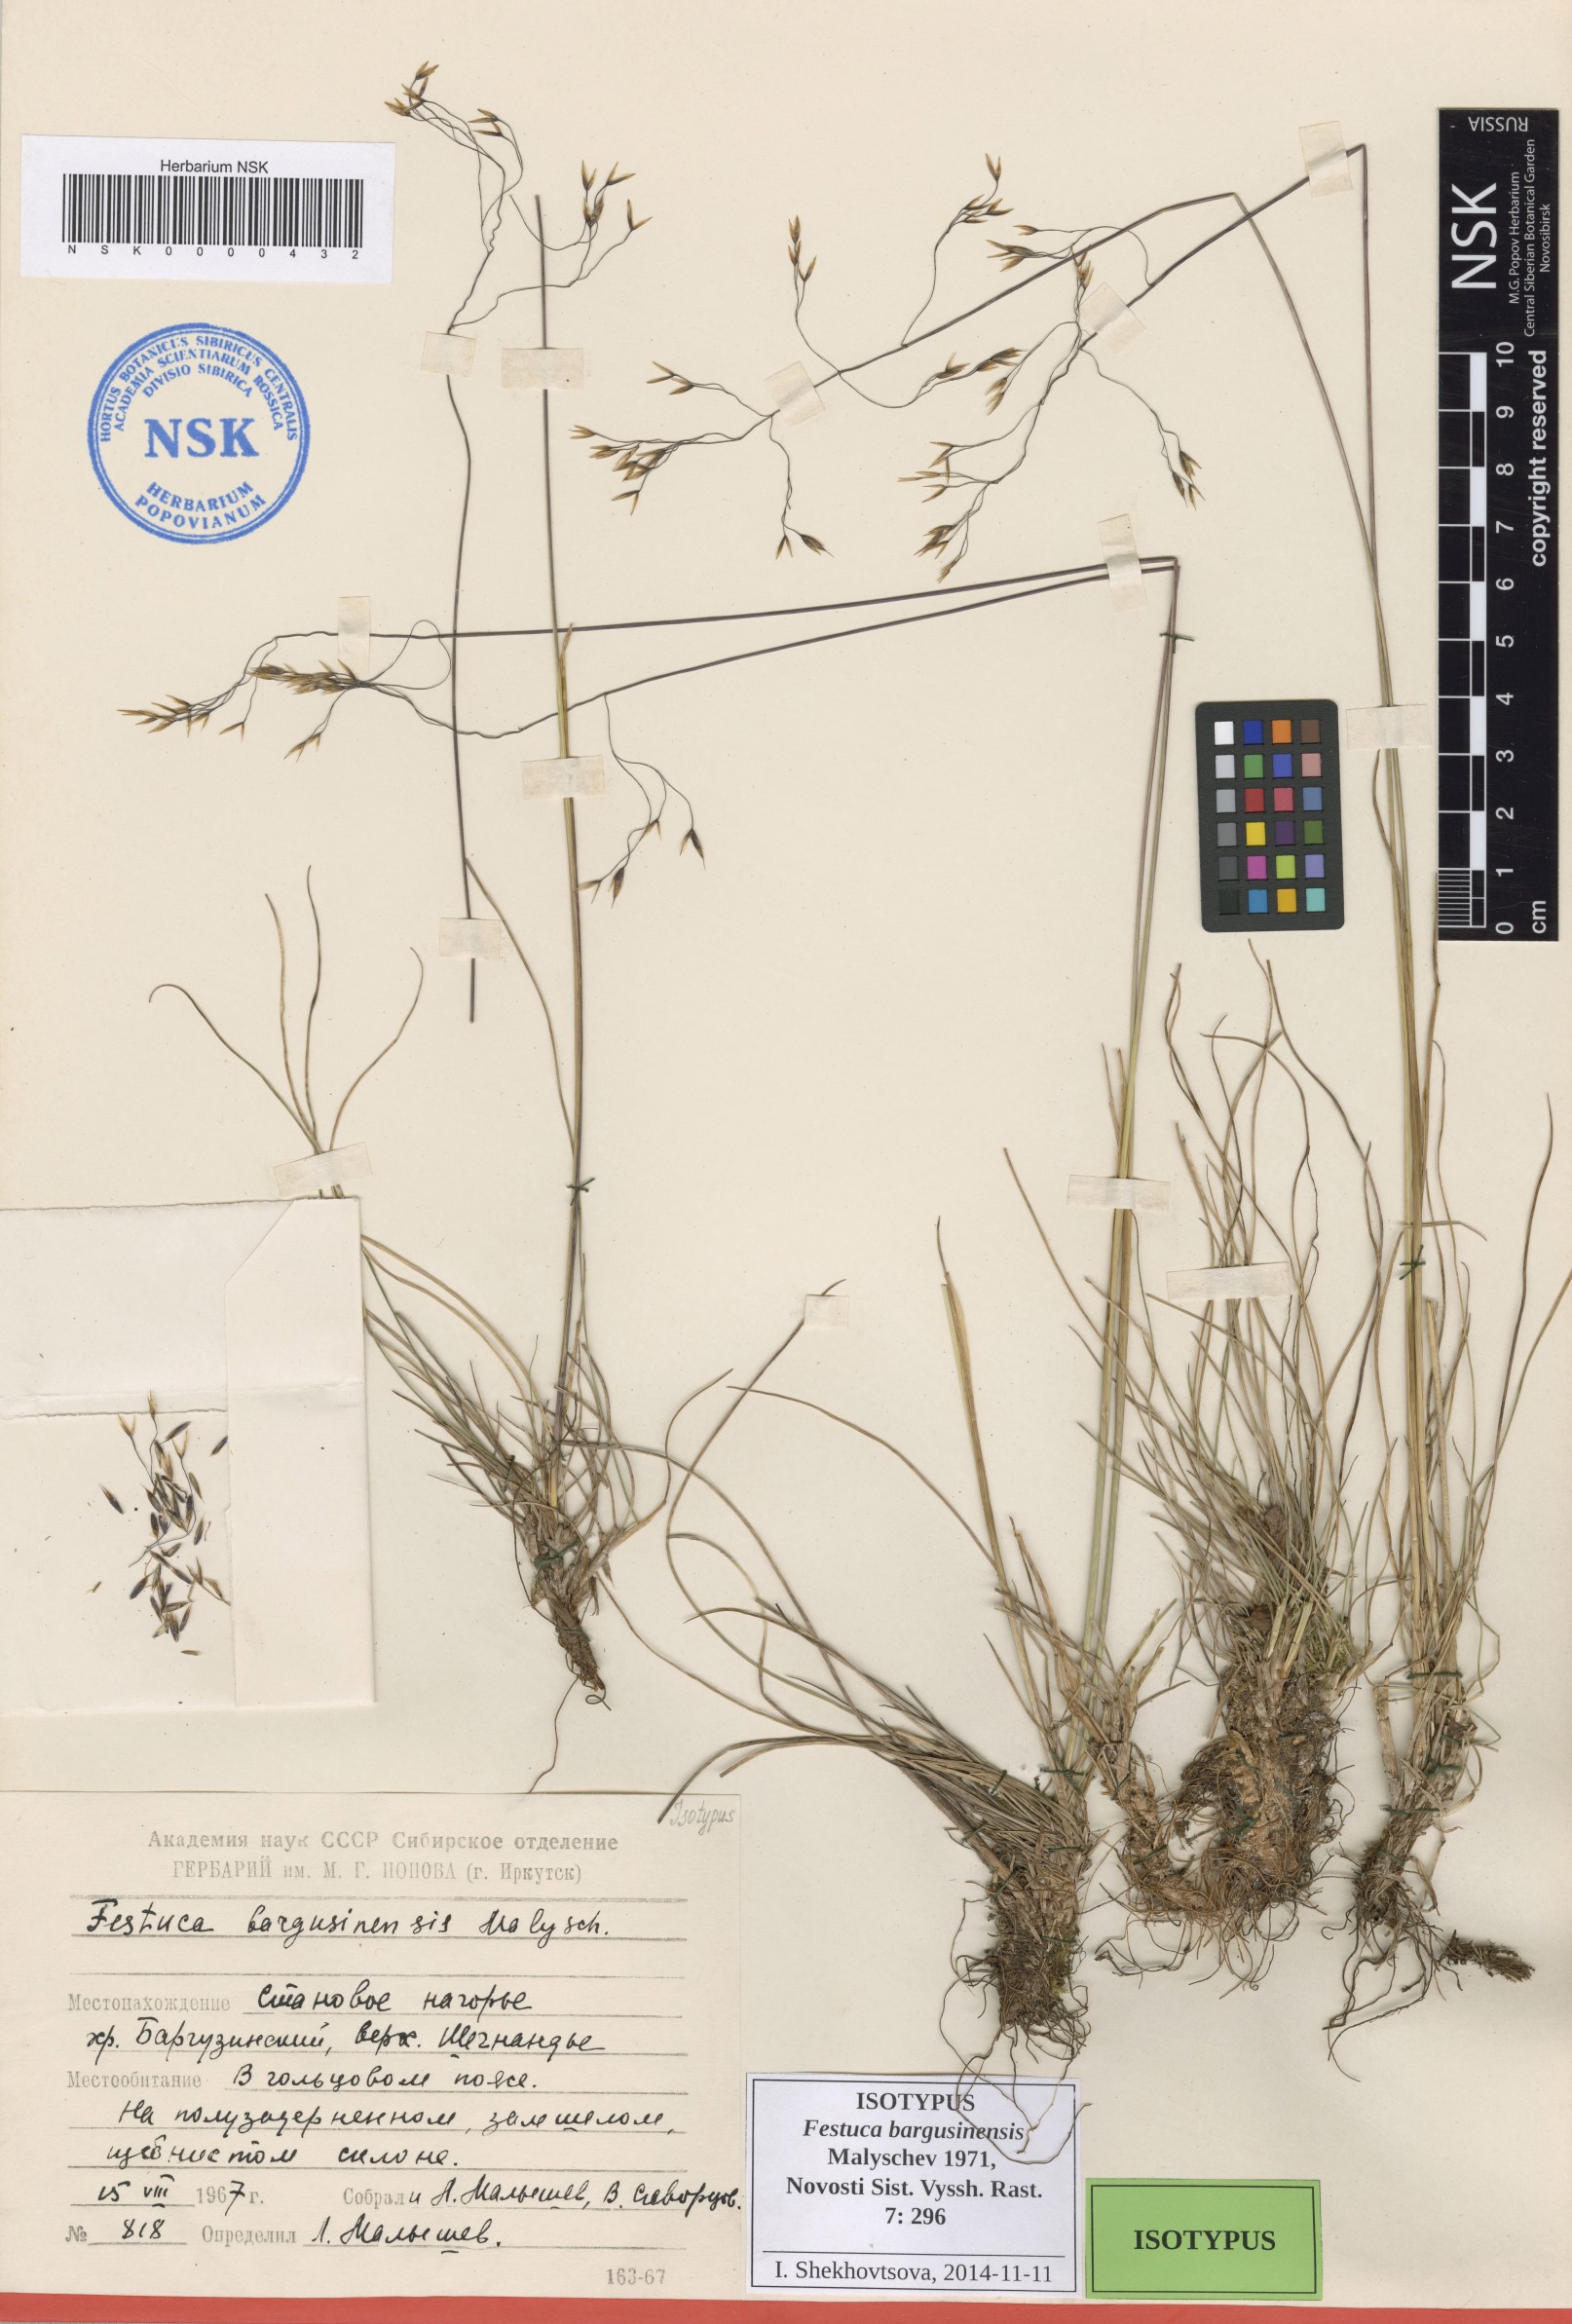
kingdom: Plantae
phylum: Tracheophyta
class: Liliopsida
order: Poales
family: Poaceae
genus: Festuca
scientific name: Festuca bargusinensis
